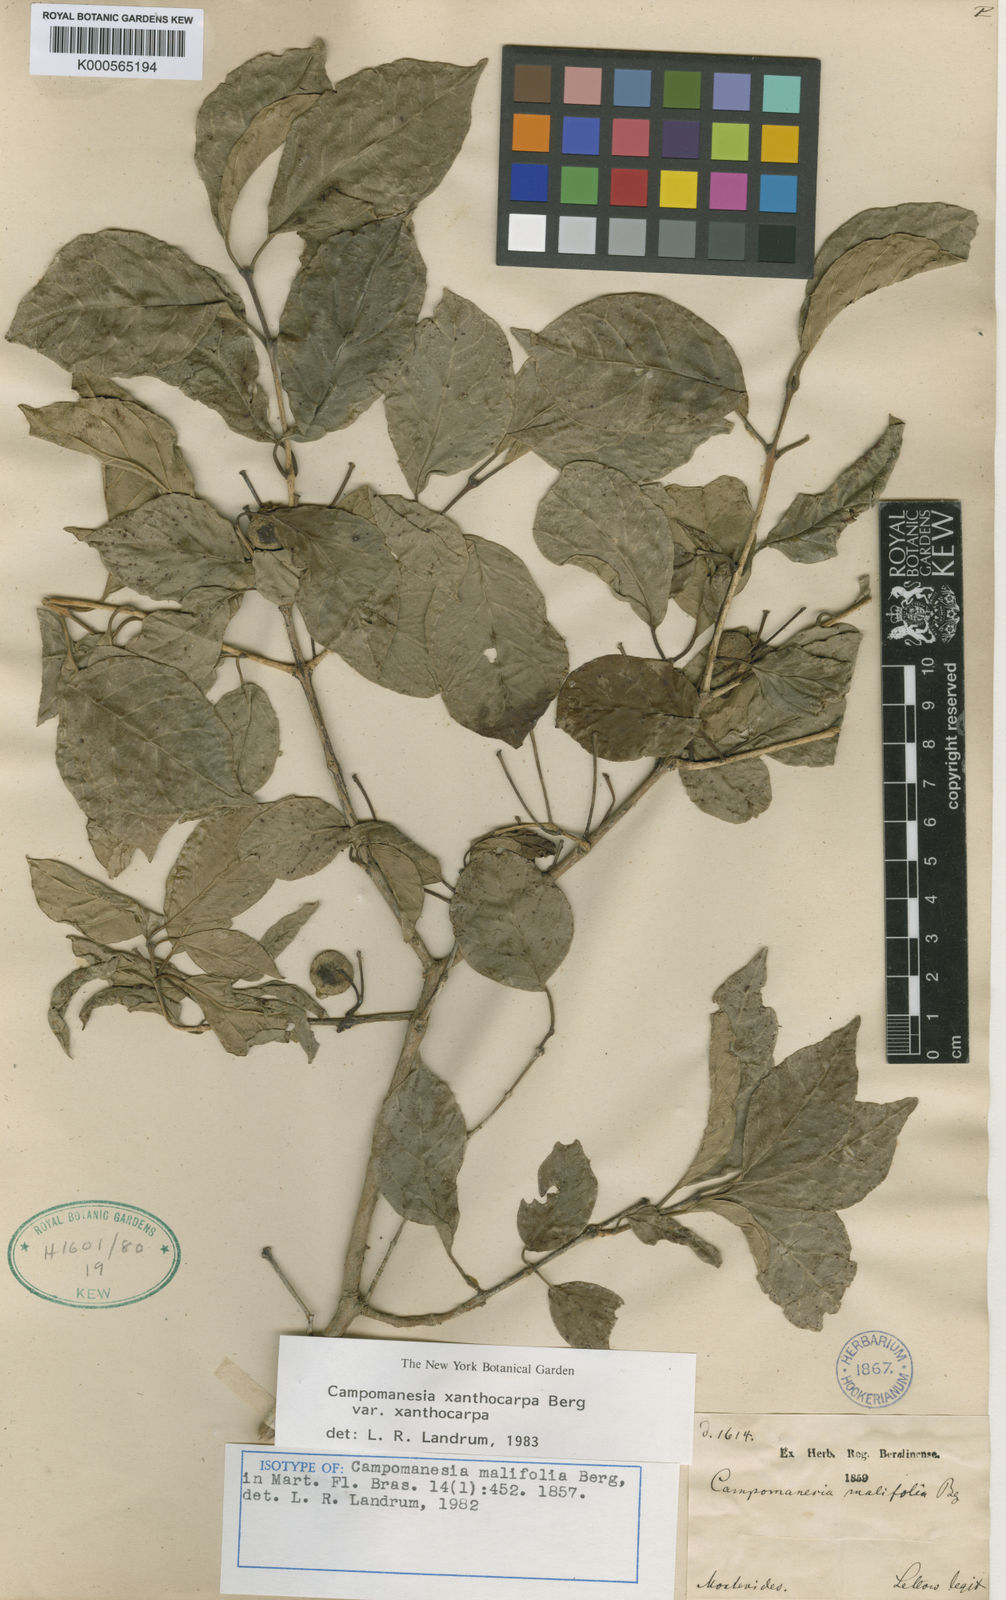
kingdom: Plantae
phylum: Tracheophyta
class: Magnoliopsida
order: Myrtales
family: Myrtaceae
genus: Campomanesia
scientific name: Campomanesia xanthocarpa
